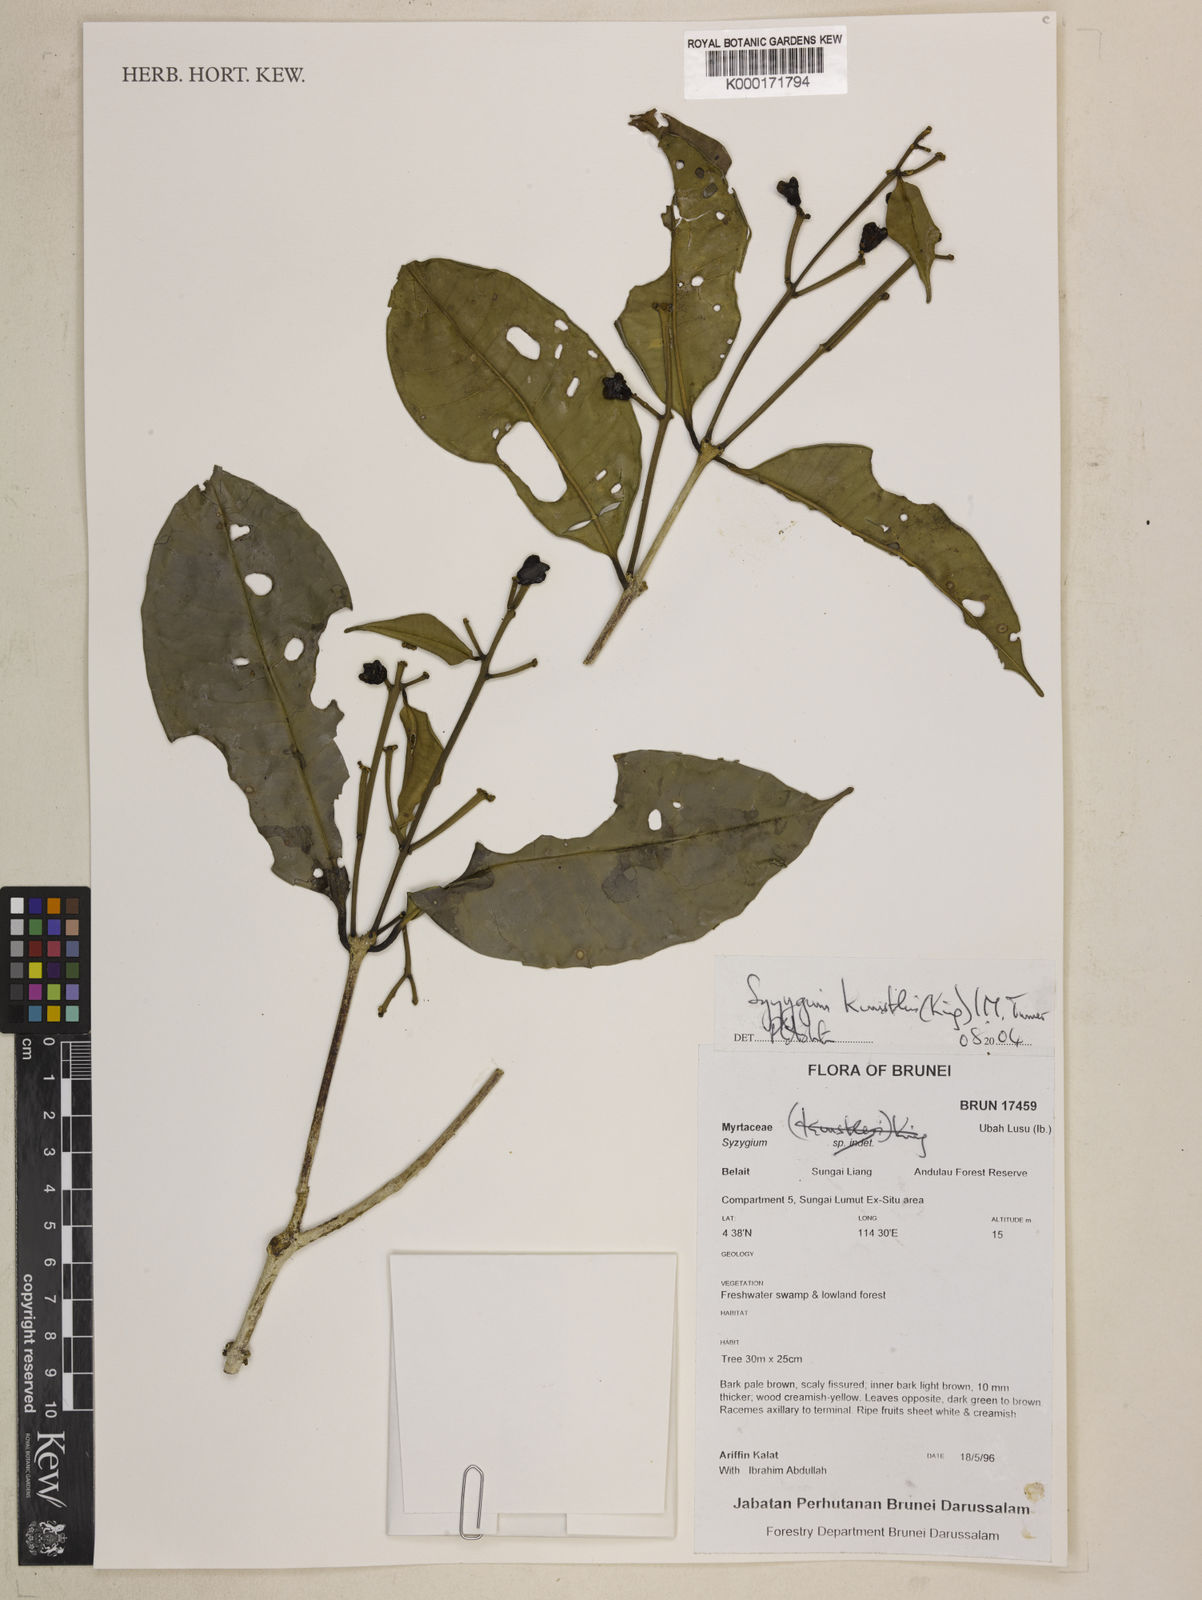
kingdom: Plantae
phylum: Tracheophyta
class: Magnoliopsida
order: Myrtales
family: Myrtaceae
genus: Syzygium
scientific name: Syzygium
